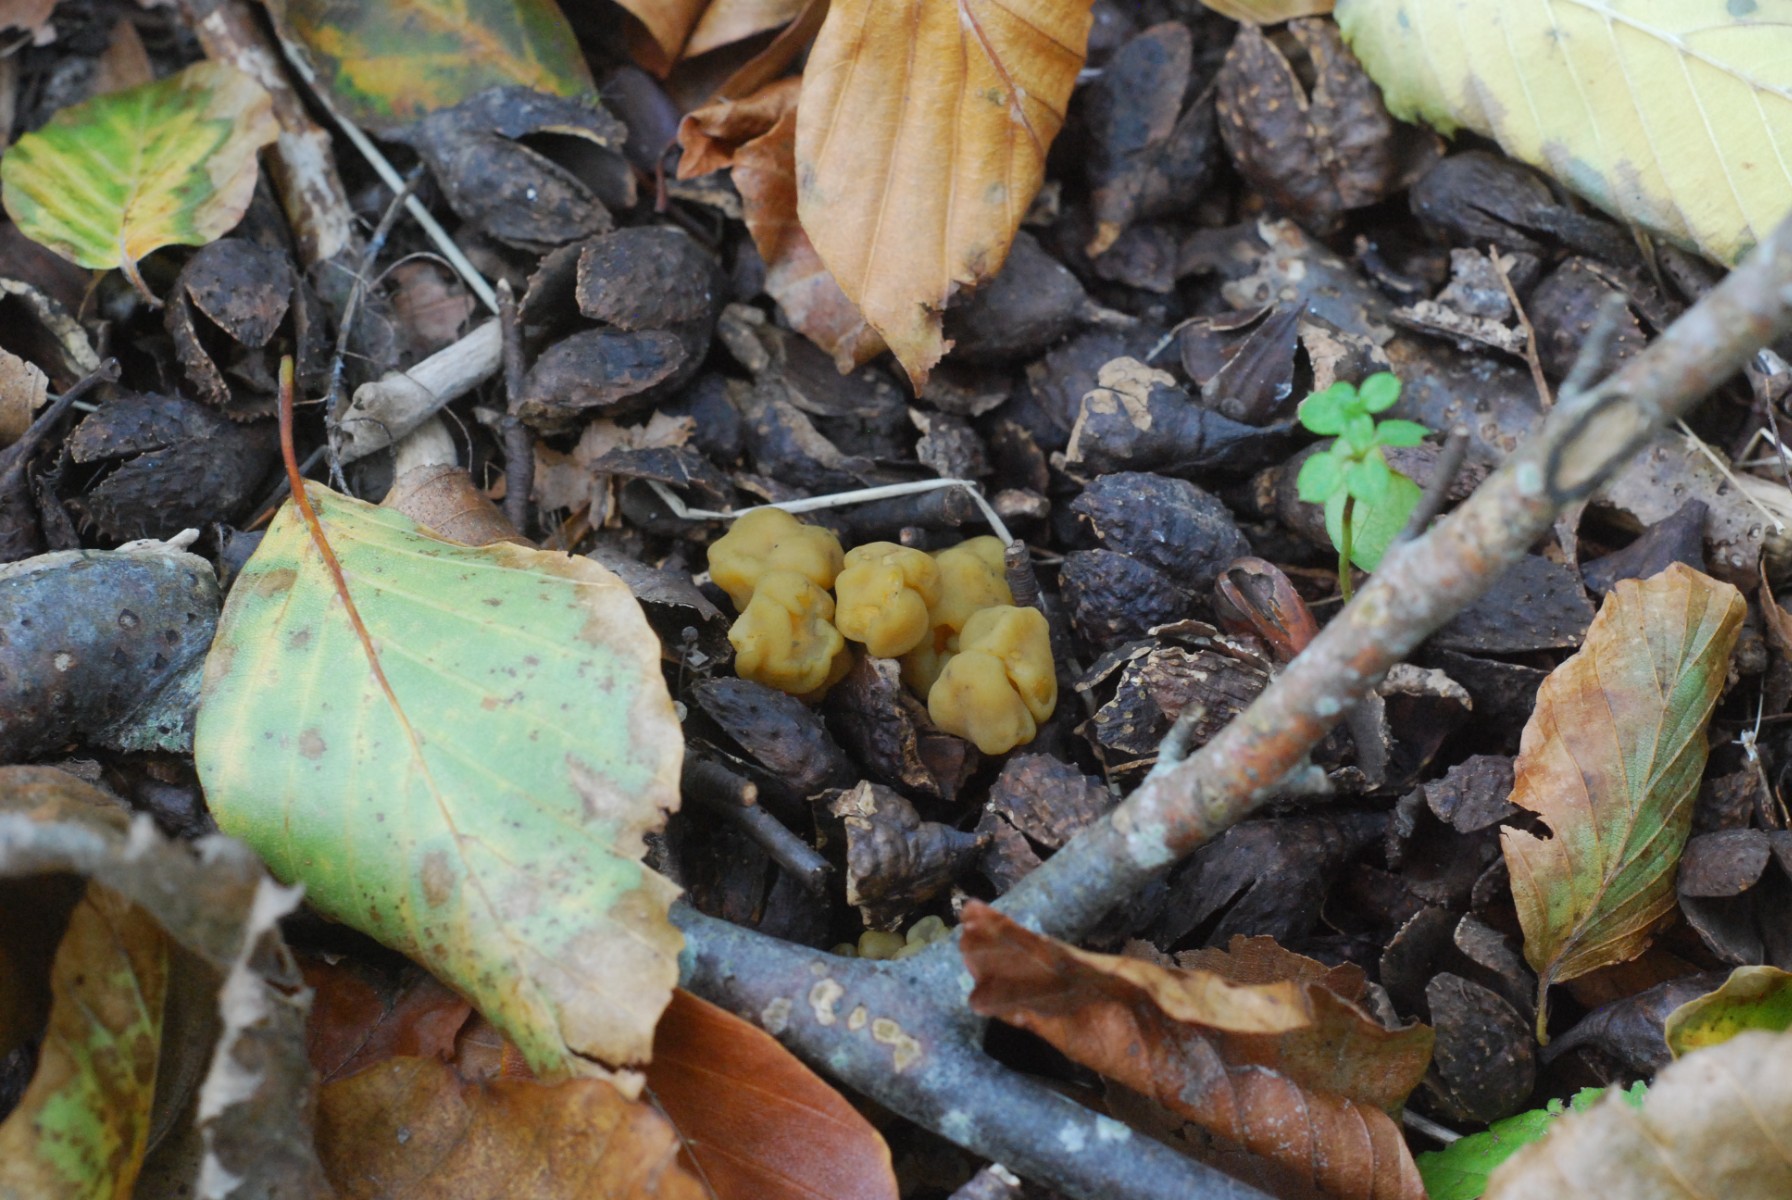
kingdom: Fungi
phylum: Ascomycota
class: Leotiomycetes
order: Leotiales
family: Leotiaceae
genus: Leotia
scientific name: Leotia lubrica
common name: ravsvamp
